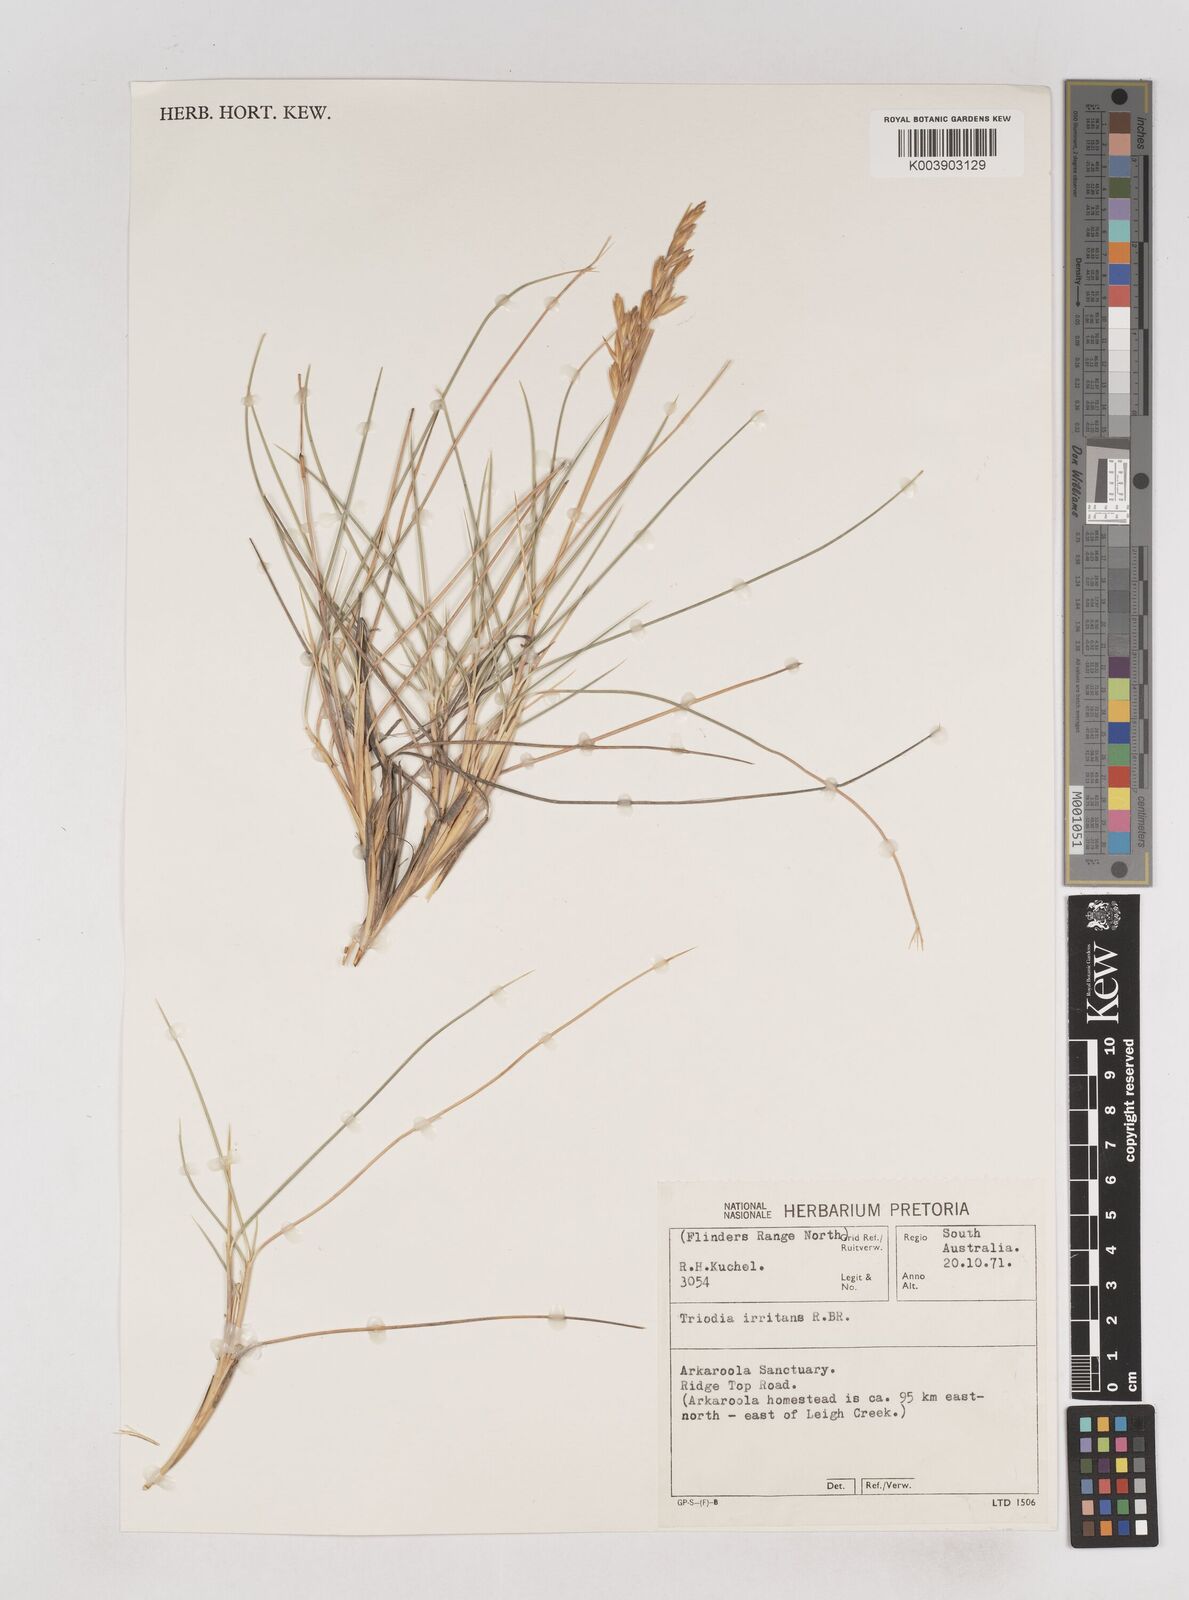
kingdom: Plantae
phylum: Tracheophyta
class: Liliopsida
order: Poales
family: Poaceae
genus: Triodia
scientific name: Triodia irritans
